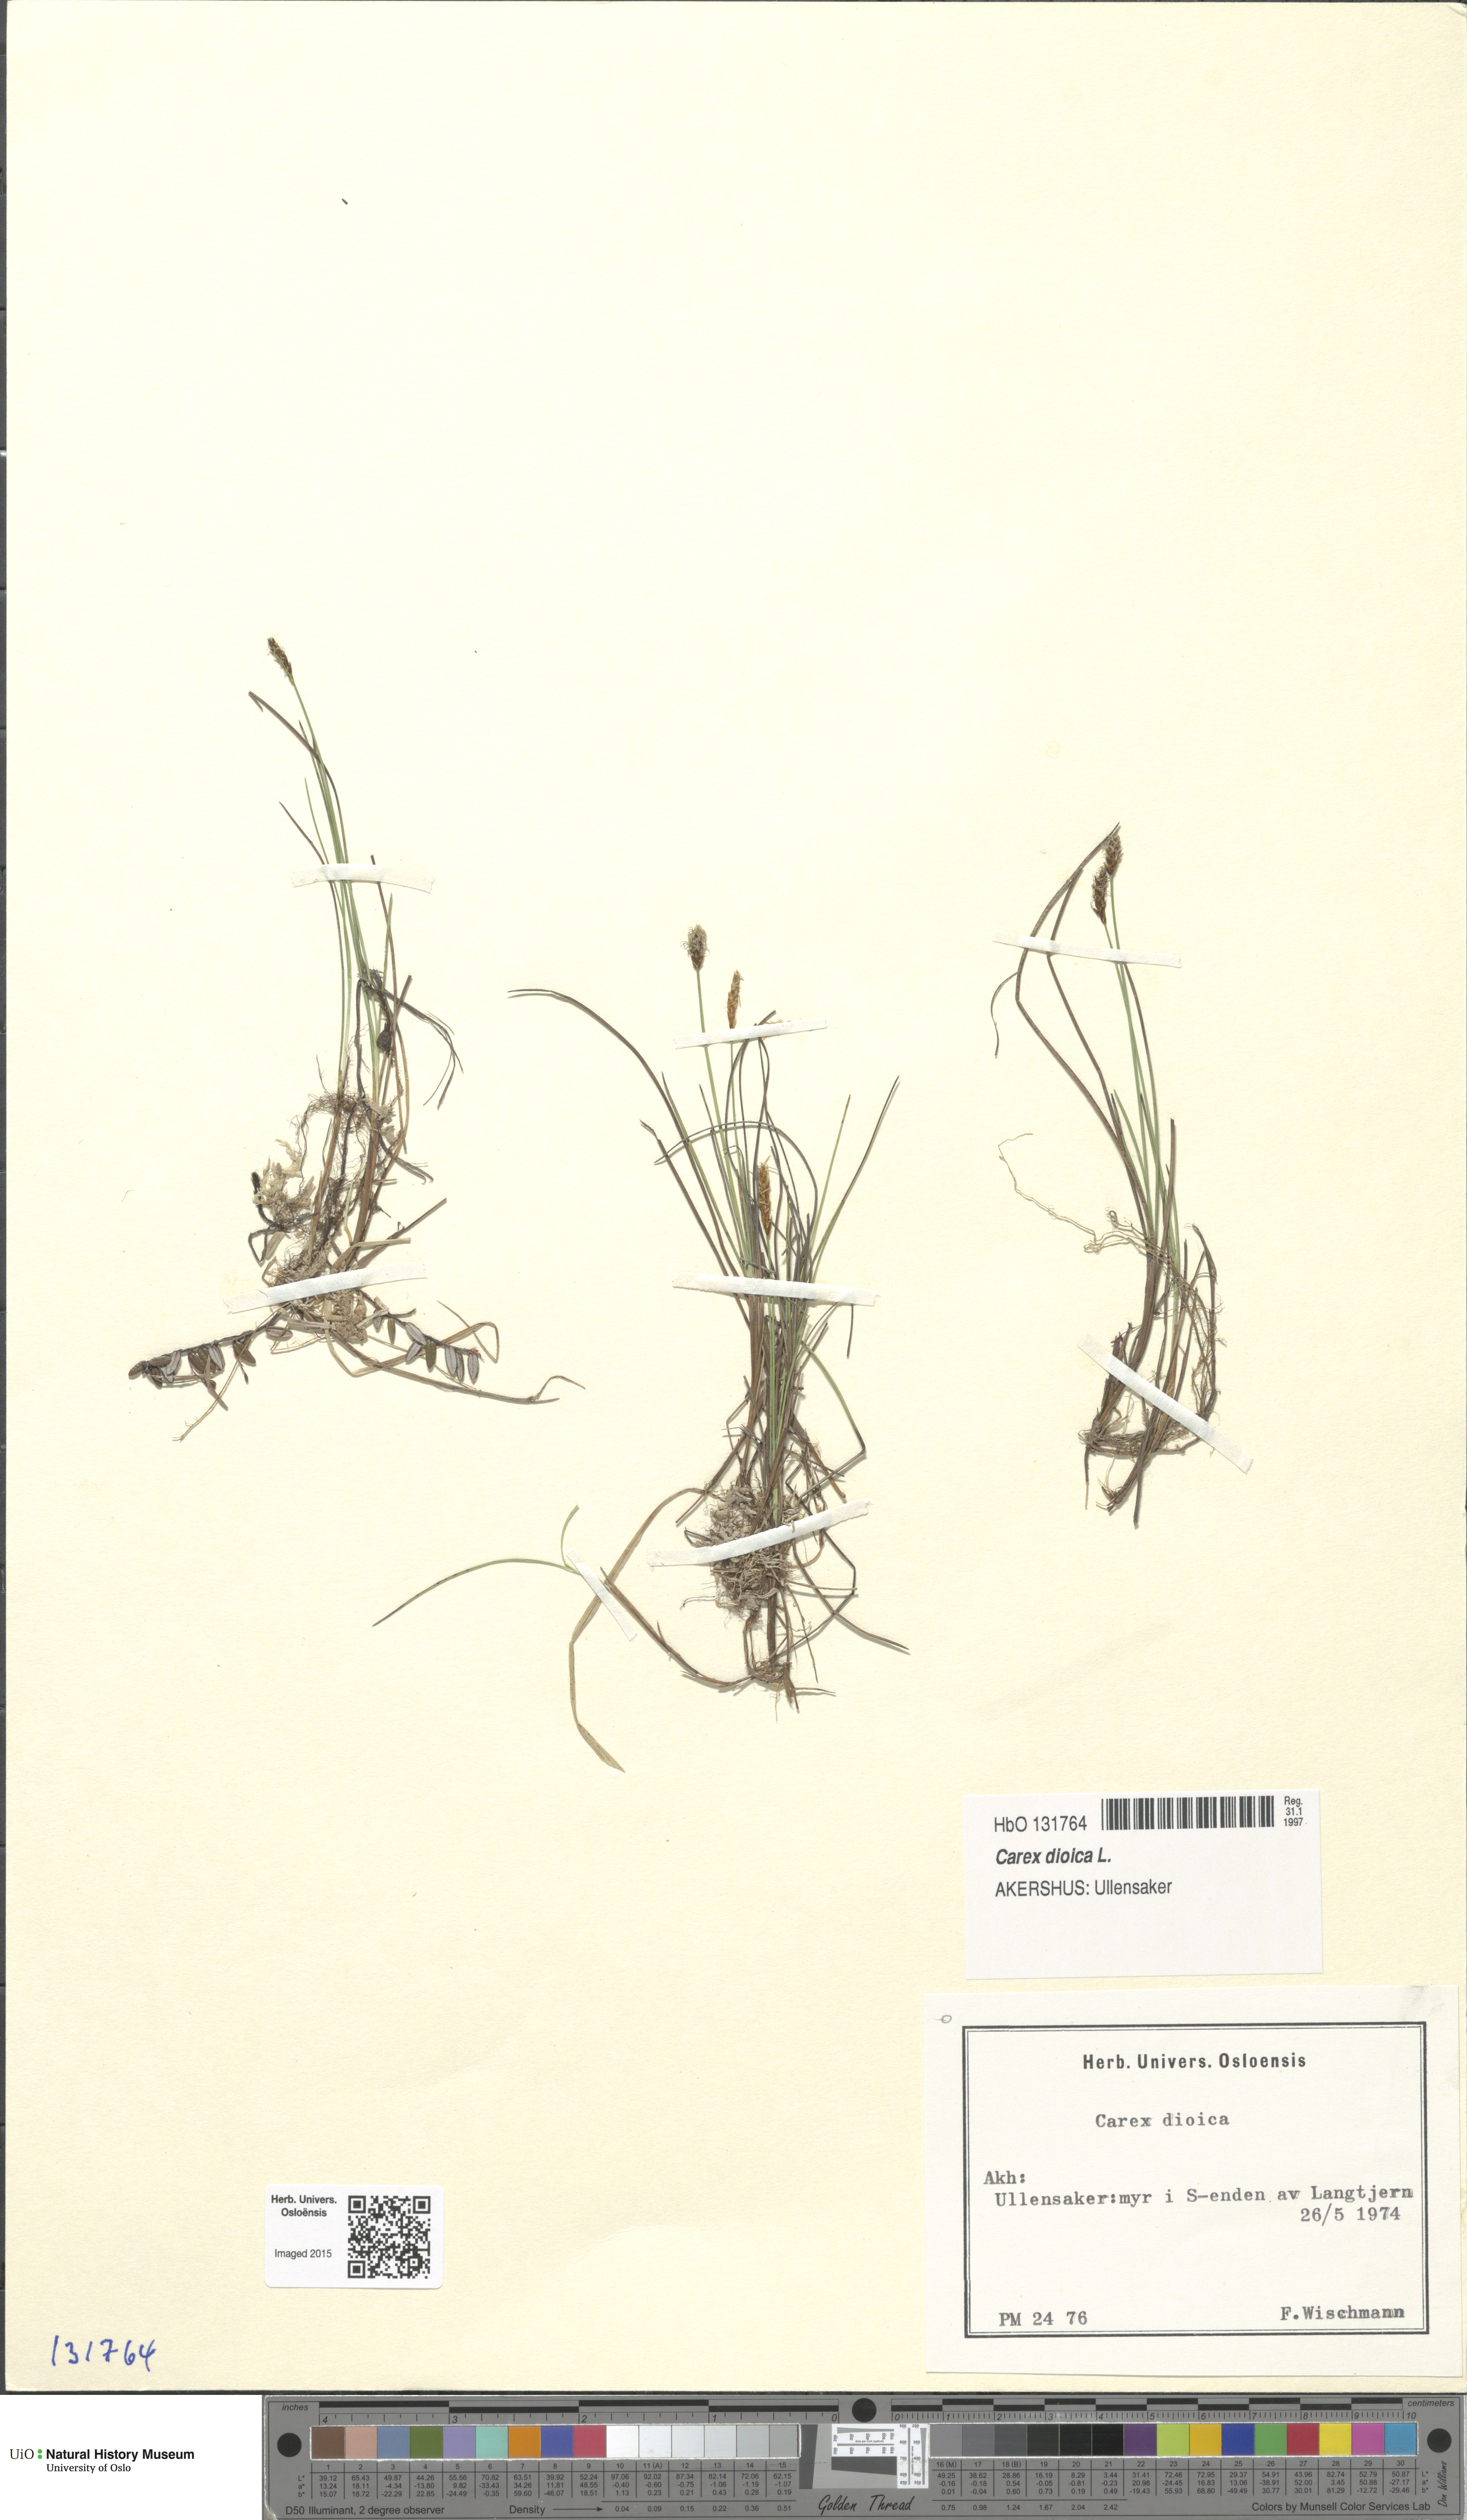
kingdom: Plantae
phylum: Tracheophyta
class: Liliopsida
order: Poales
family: Cyperaceae
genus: Carex
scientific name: Carex dioica
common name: Dioecious sedge
